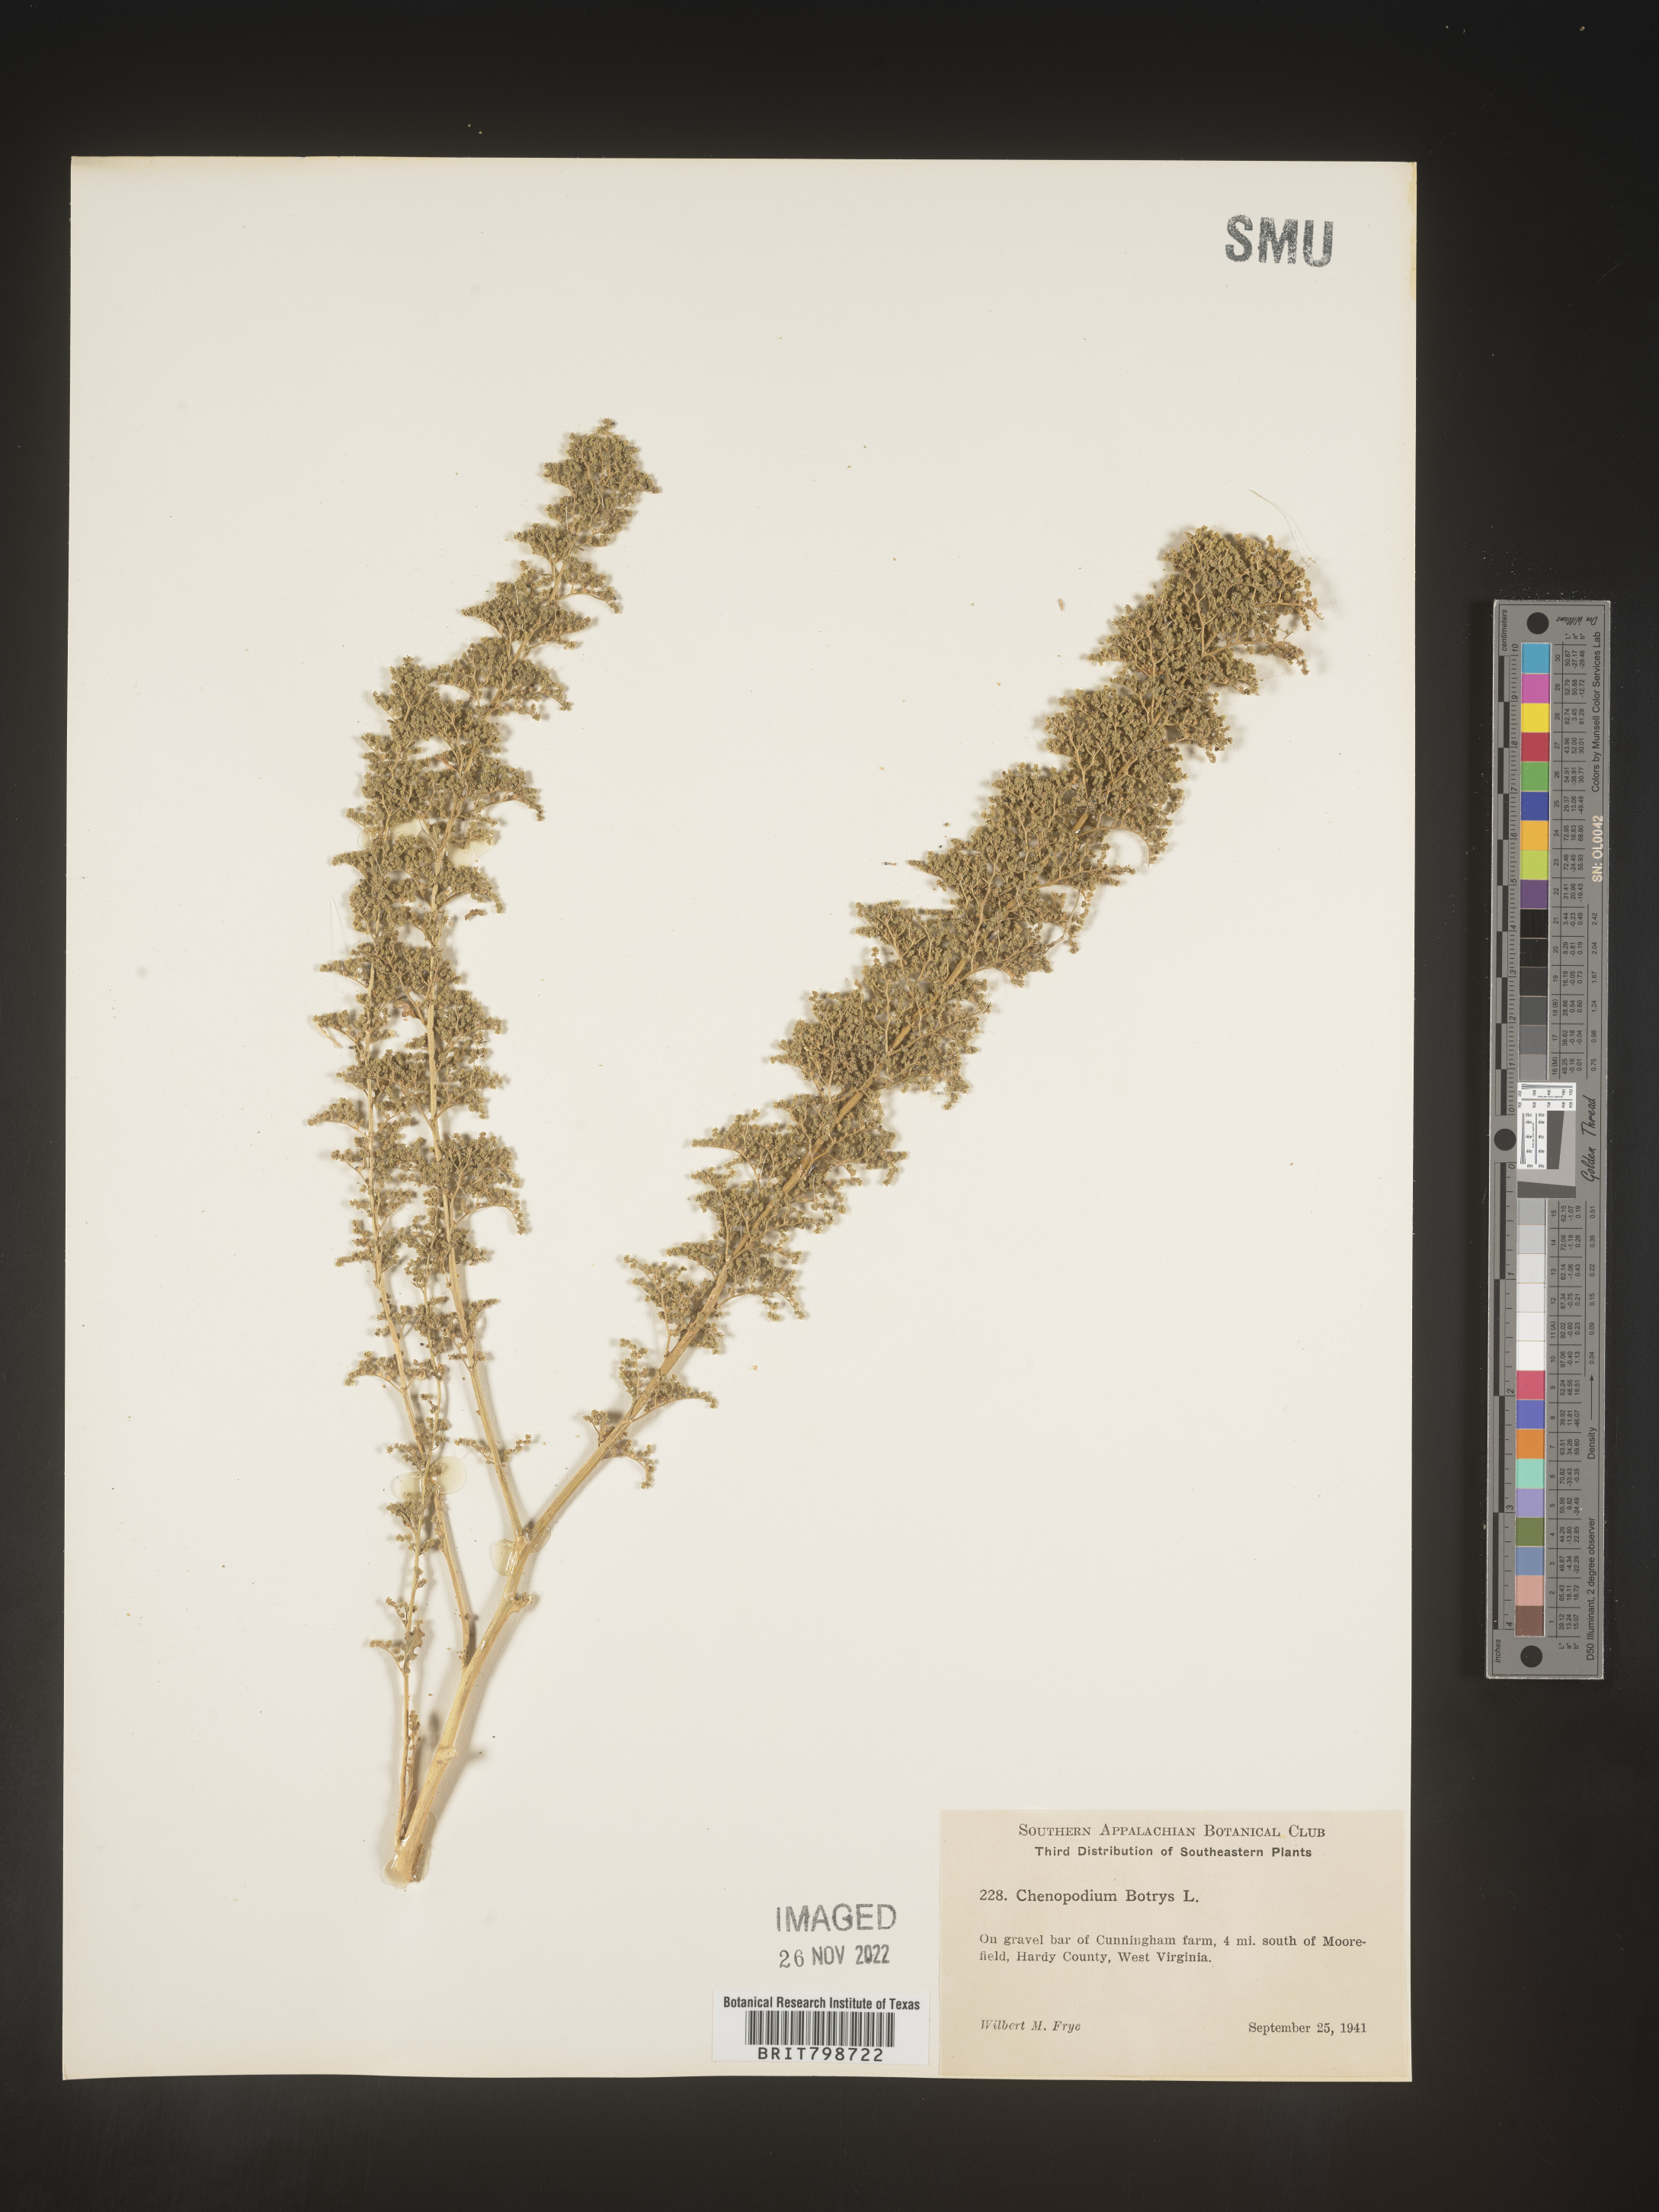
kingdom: Plantae
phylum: Tracheophyta
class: Magnoliopsida
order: Caryophyllales
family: Amaranthaceae
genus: Dysphania
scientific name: Dysphania botrys
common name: Feather-geranium
